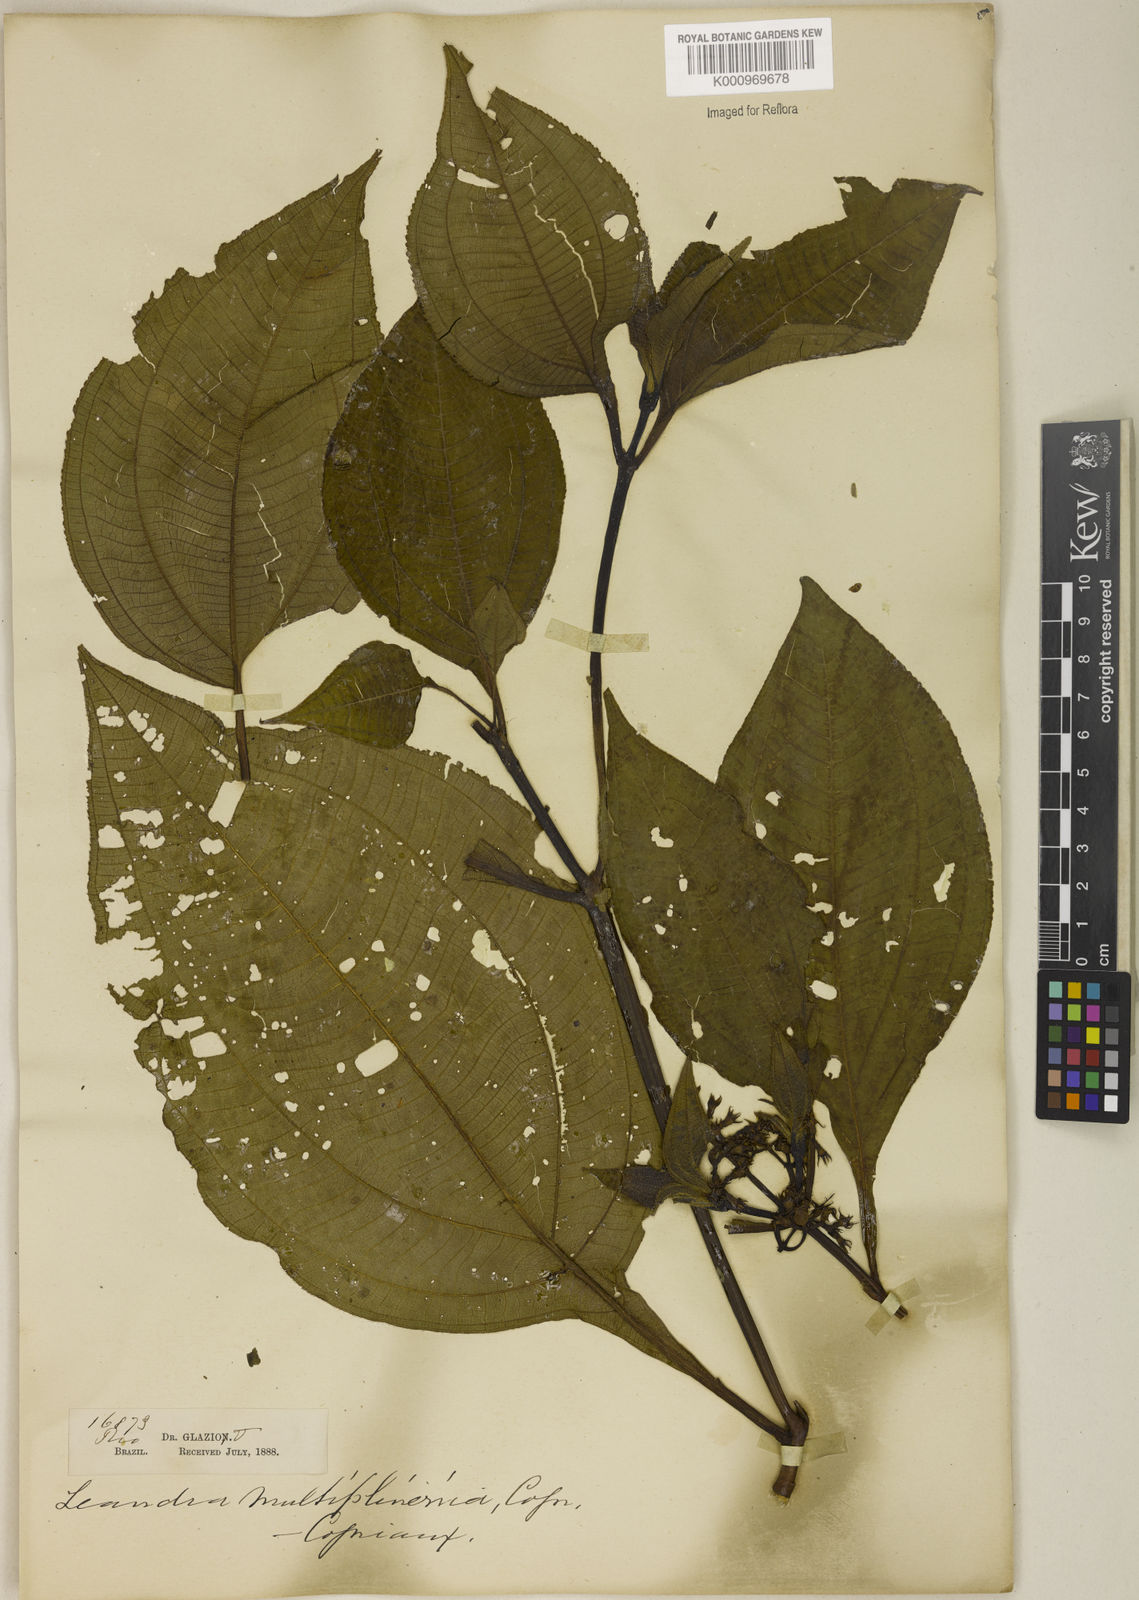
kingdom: Plantae
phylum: Tracheophyta
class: Magnoliopsida
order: Myrtales
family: Melastomataceae
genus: Miconia
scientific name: Miconia oocarpa
